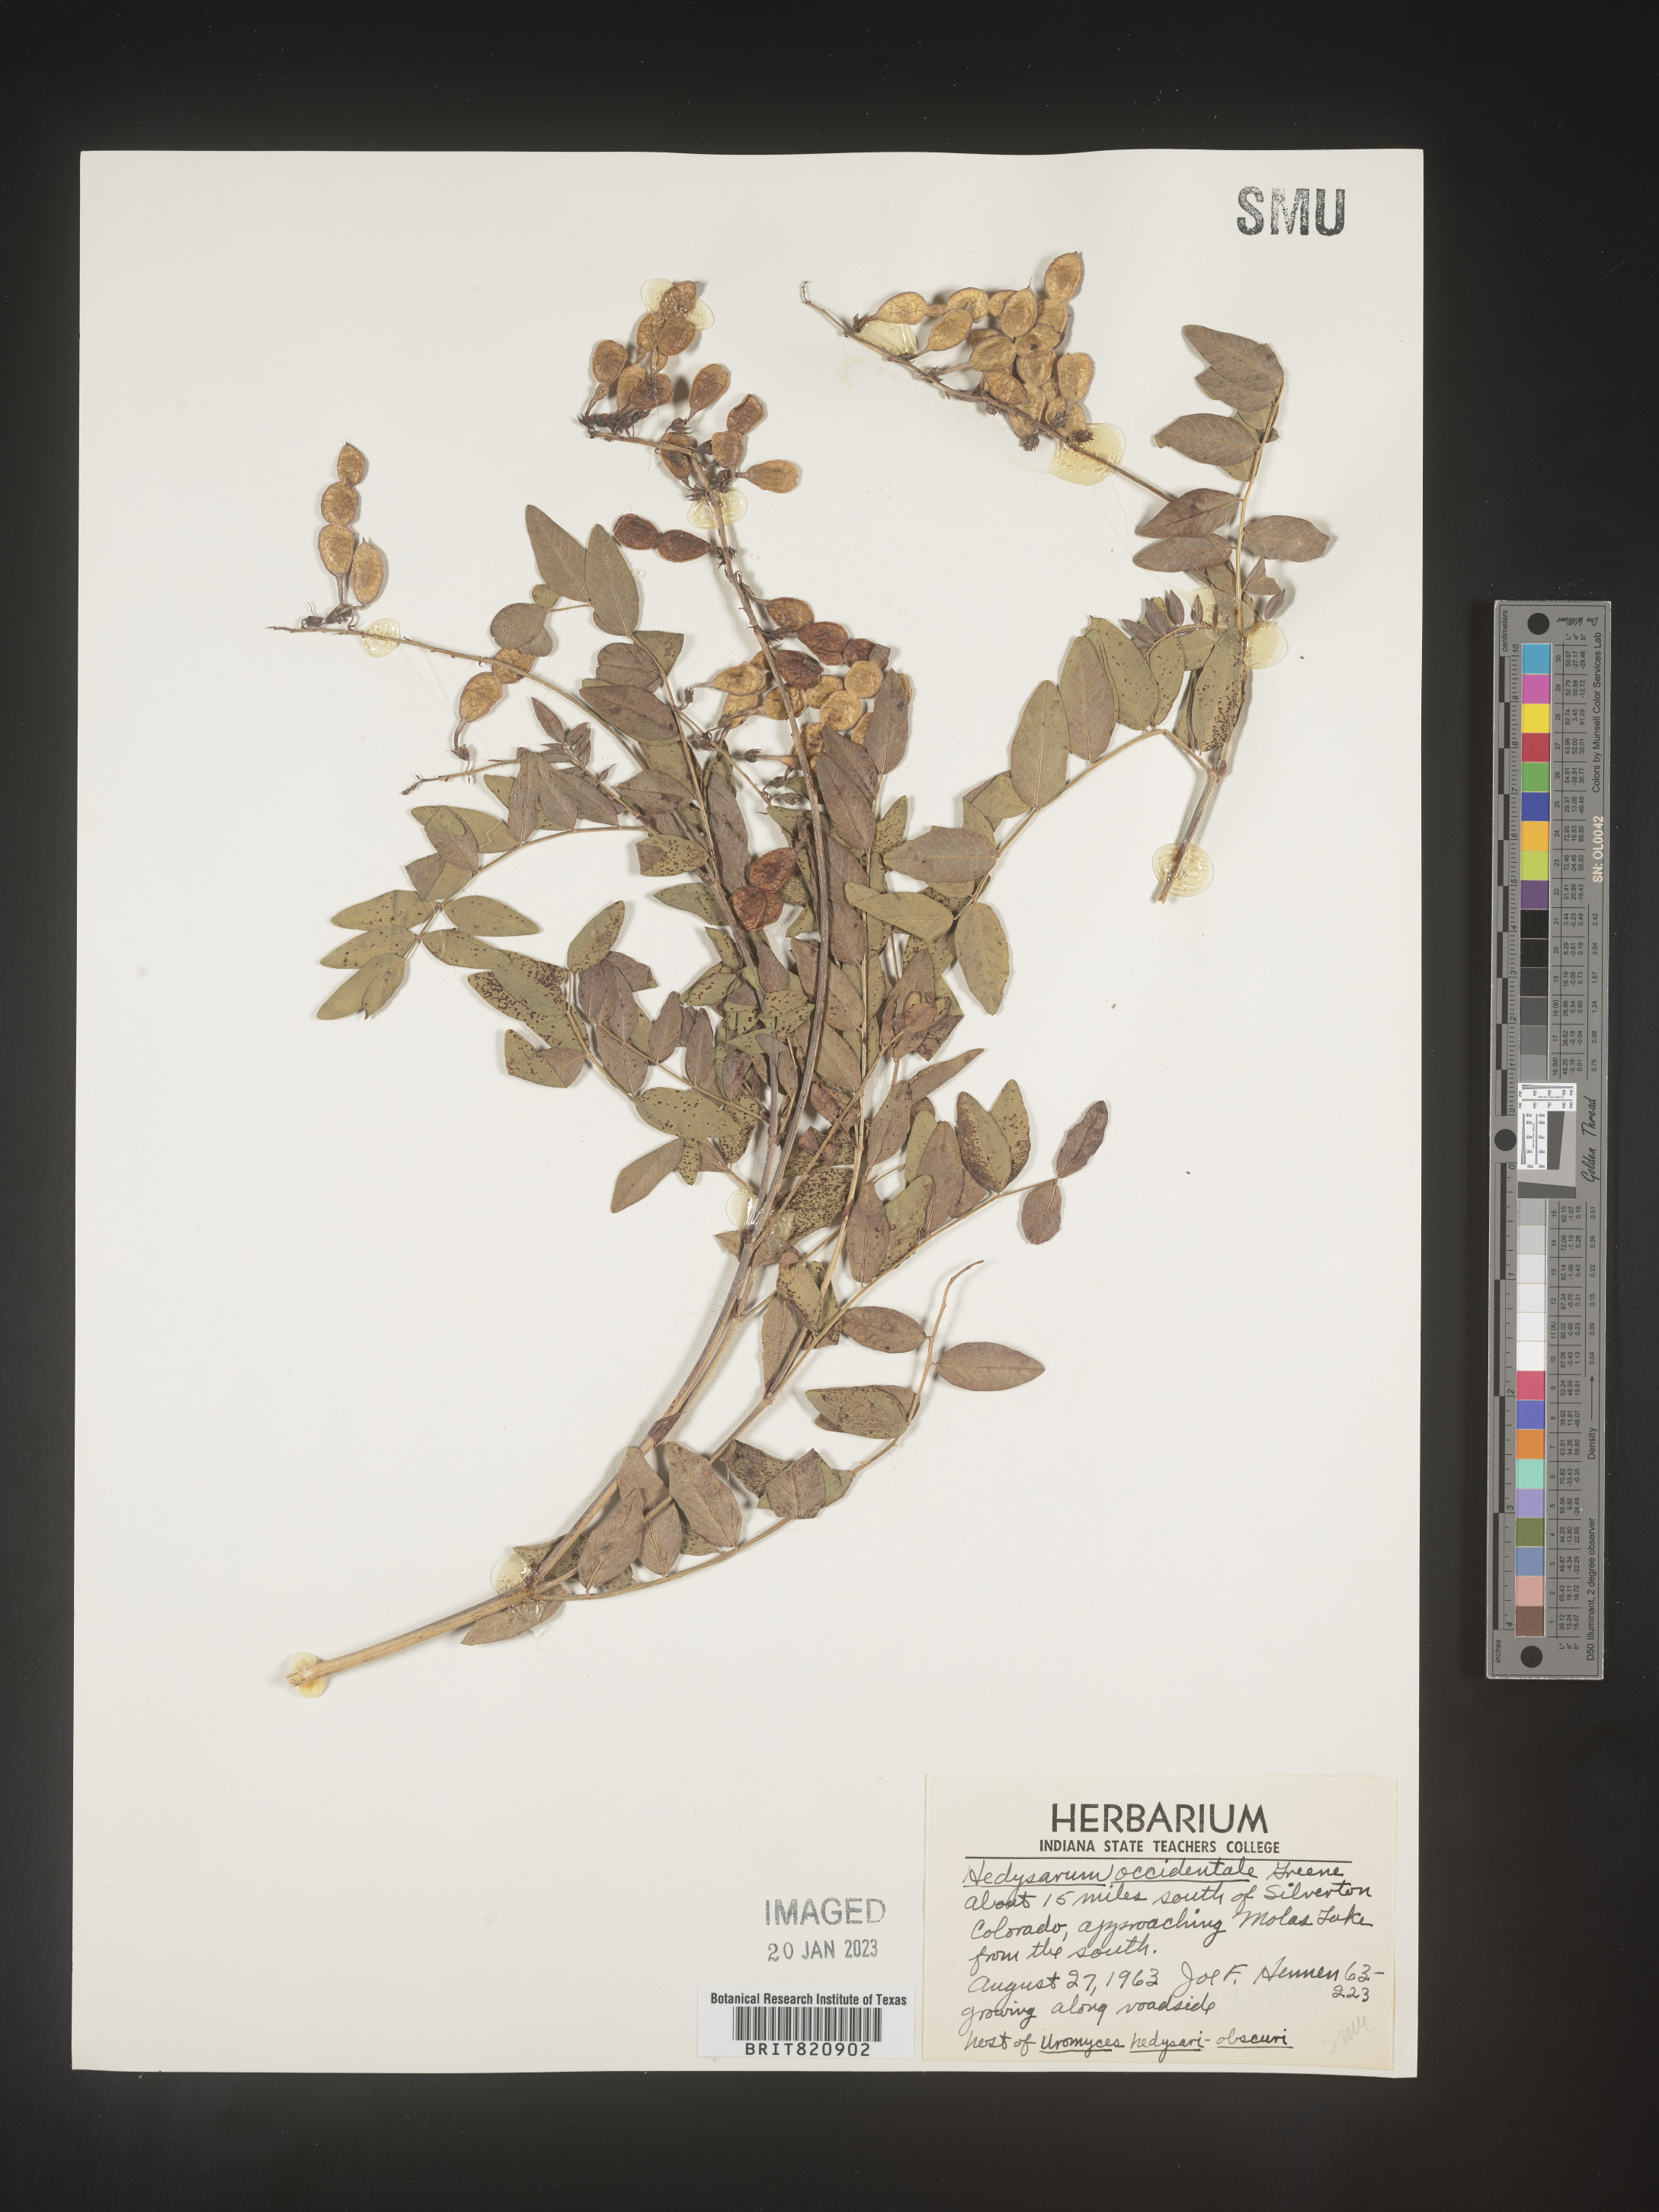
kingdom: Plantae
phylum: Tracheophyta
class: Magnoliopsida
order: Fabales
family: Fabaceae
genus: Hedysarum
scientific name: Hedysarum occidentale
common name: Western hedysarum
